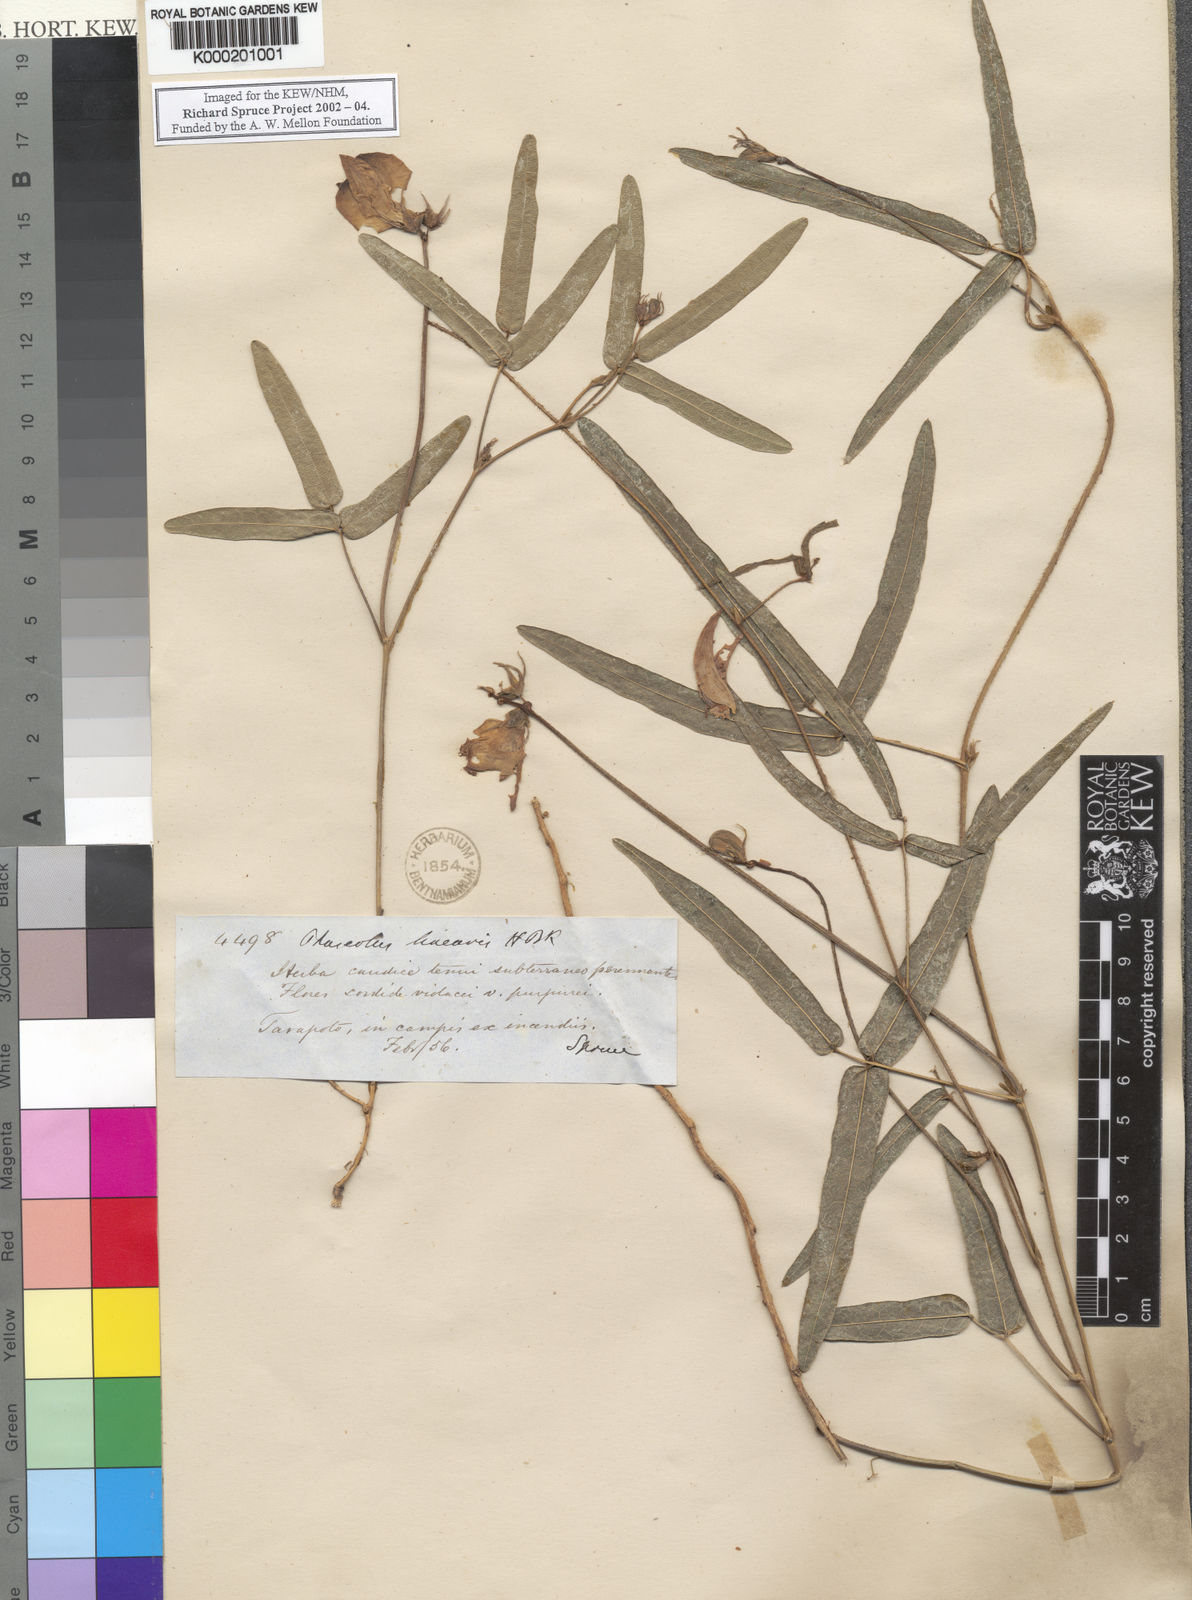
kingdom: Plantae
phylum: Tracheophyta
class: Magnoliopsida
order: Fabales
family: Fabaceae
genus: Helicotropis
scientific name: Helicotropis linearis
